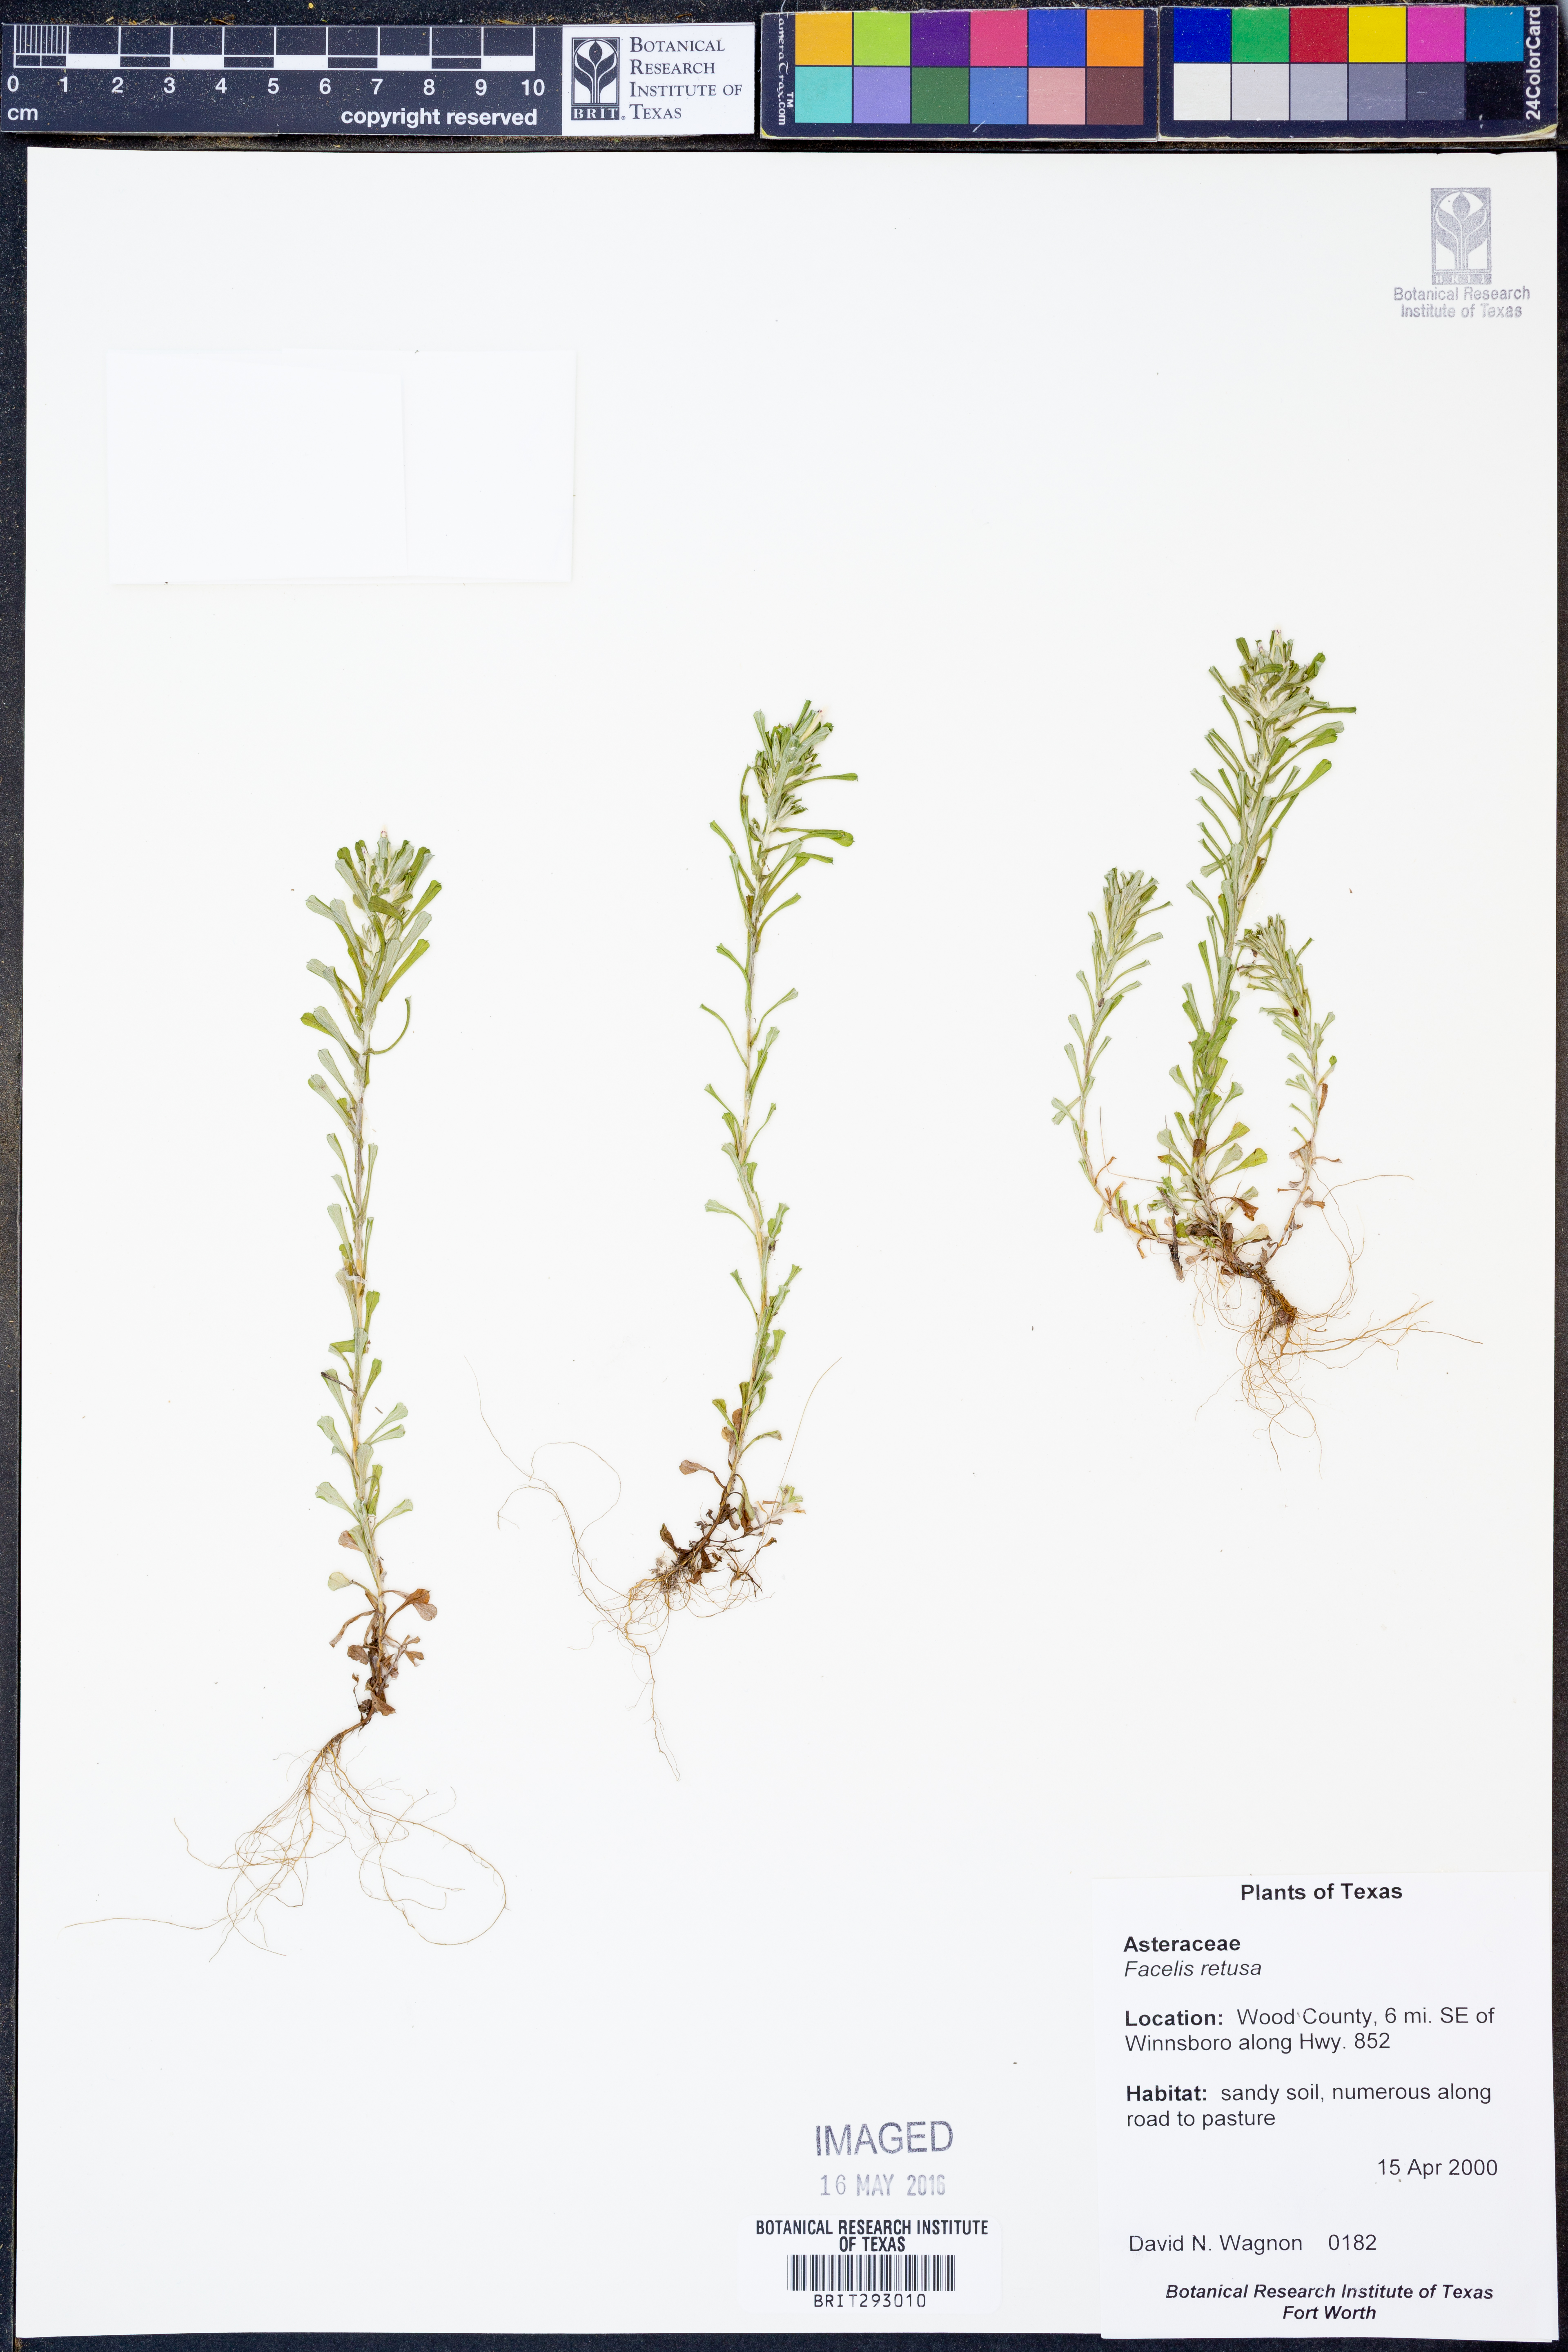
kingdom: Plantae
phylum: Tracheophyta
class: Magnoliopsida
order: Asterales
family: Asteraceae
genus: Facelis
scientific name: Facelis retusa
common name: Annual trampweed
